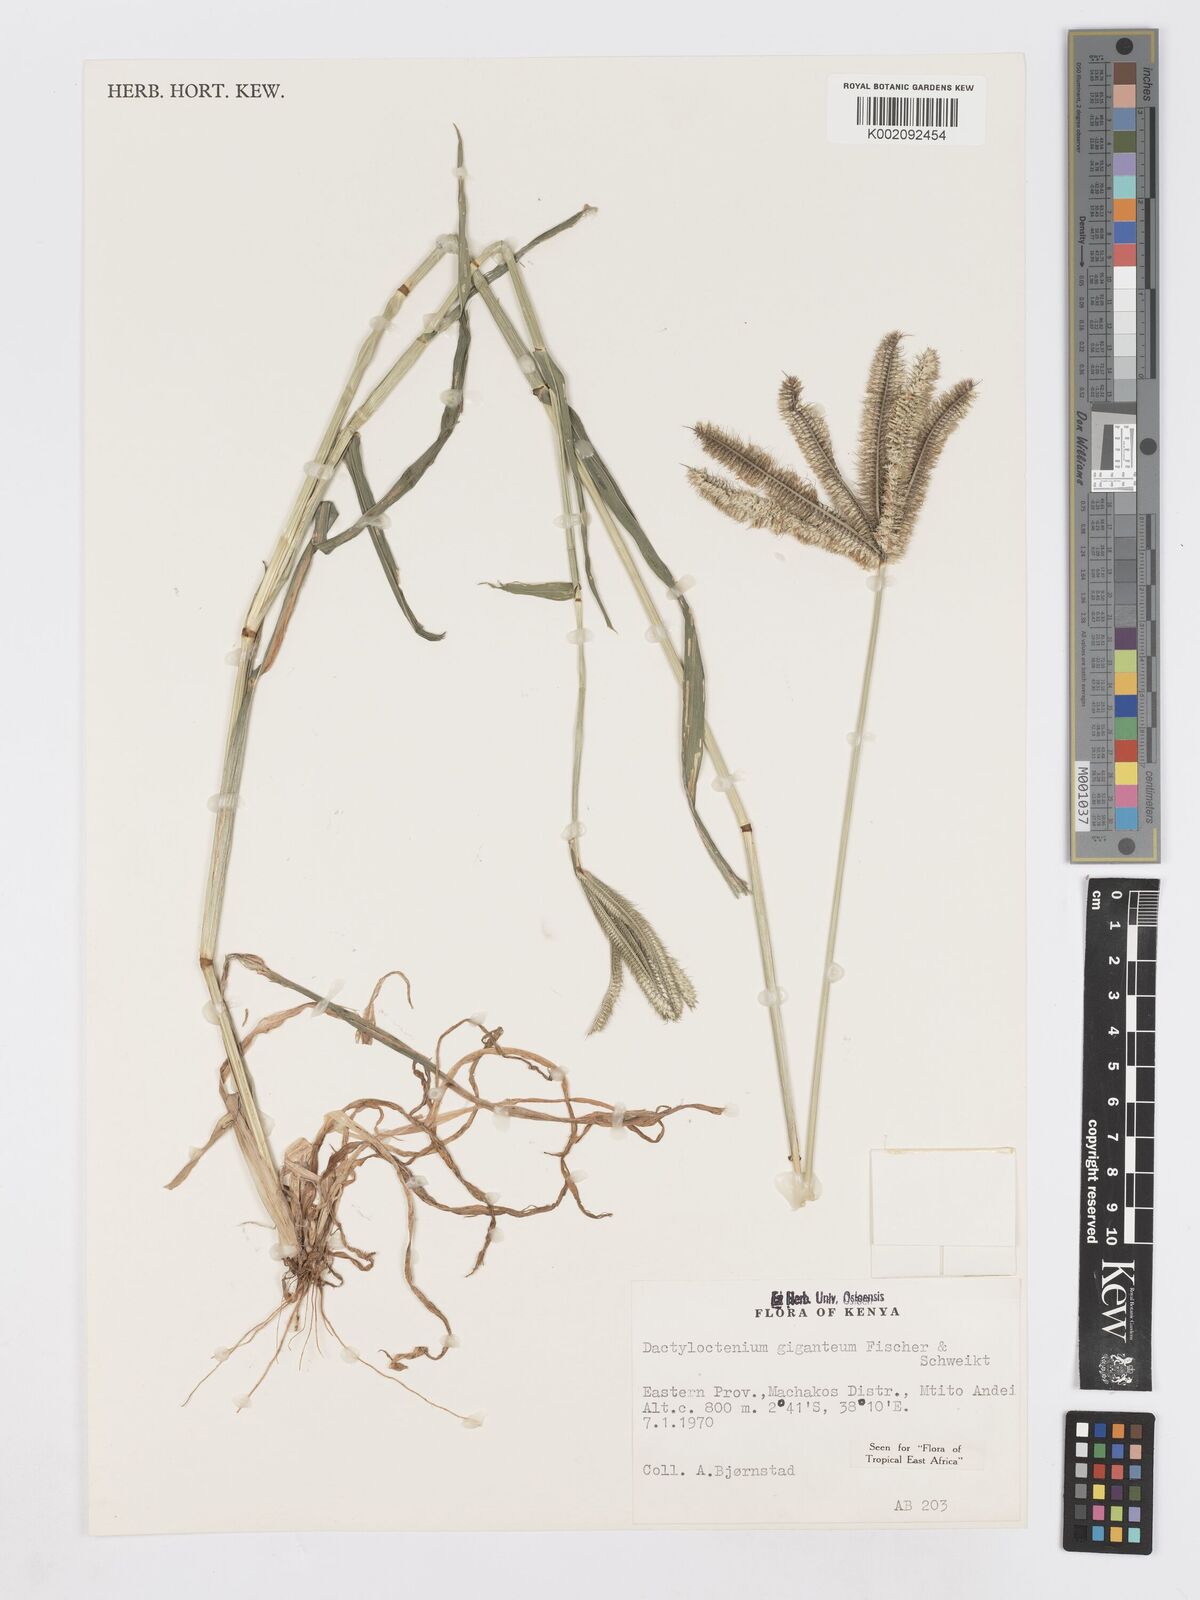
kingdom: Plantae
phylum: Tracheophyta
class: Liliopsida
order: Poales
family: Poaceae
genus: Dactyloctenium
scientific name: Dactyloctenium giganteum
